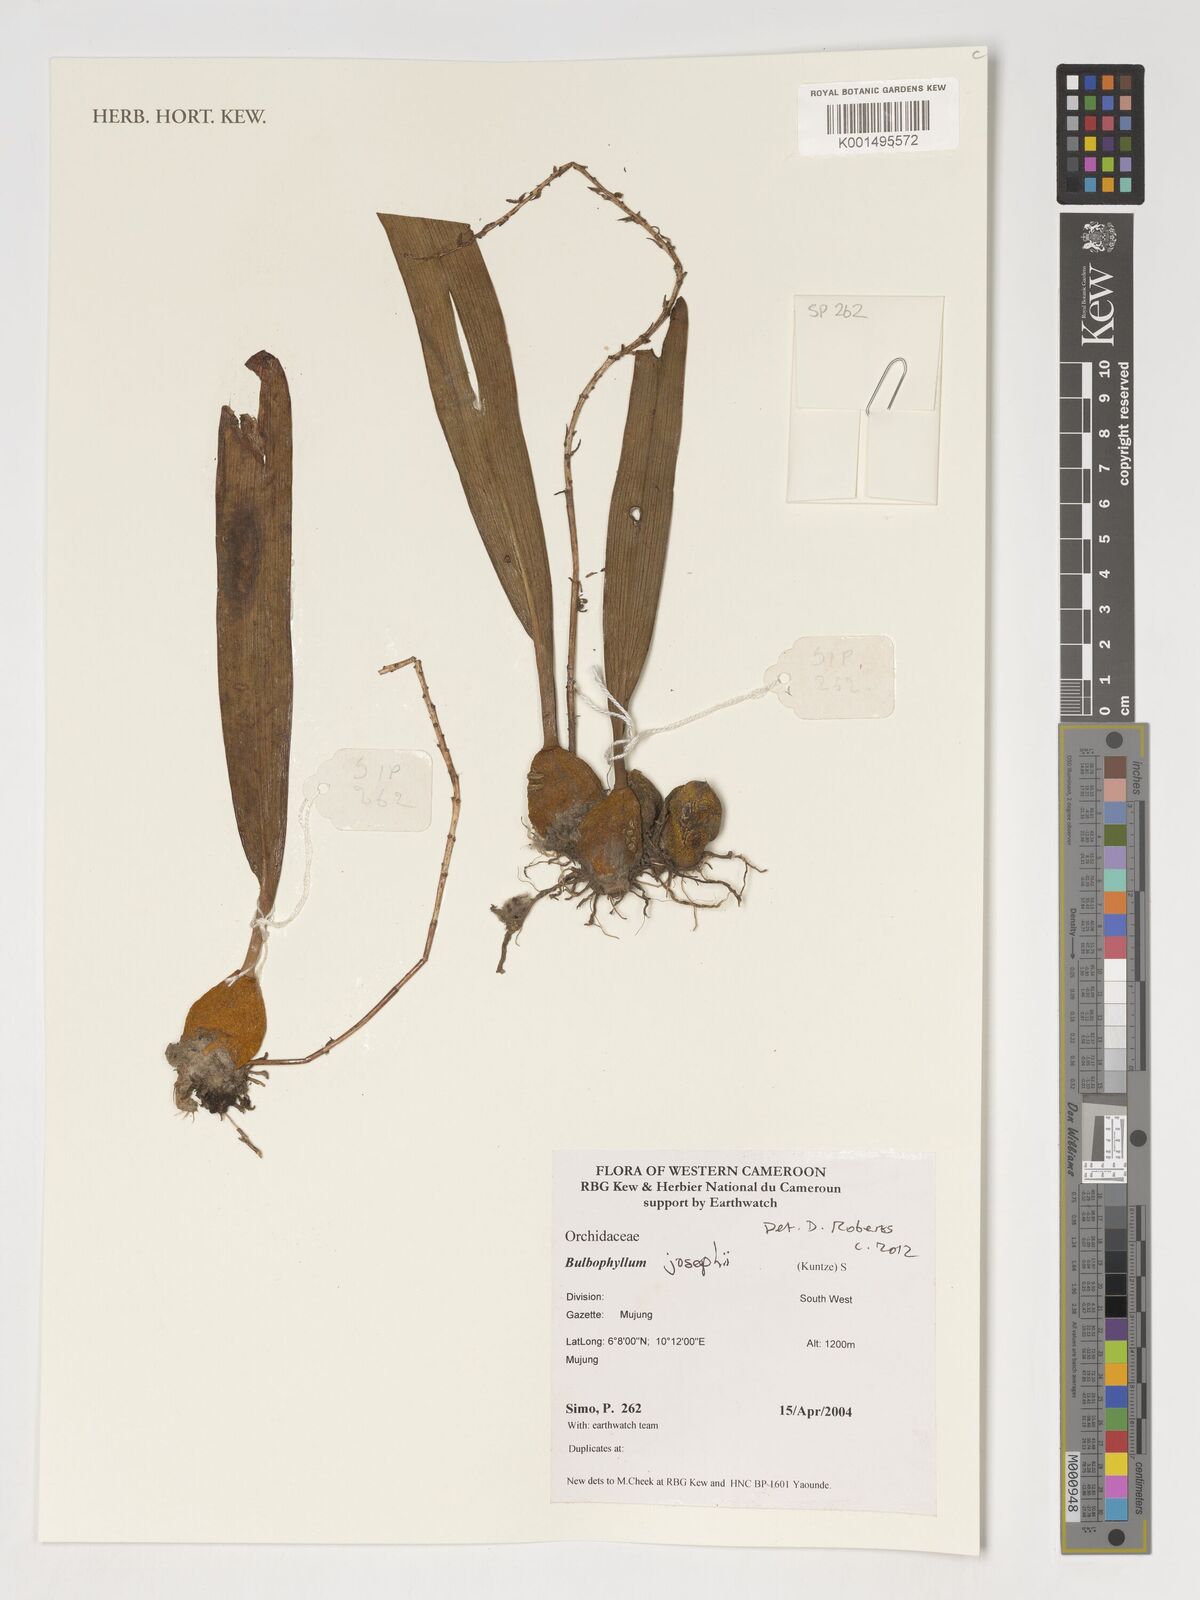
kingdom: Plantae
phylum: Tracheophyta
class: Liliopsida
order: Asparagales
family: Orchidaceae
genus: Bulbophyllum
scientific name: Bulbophyllum
